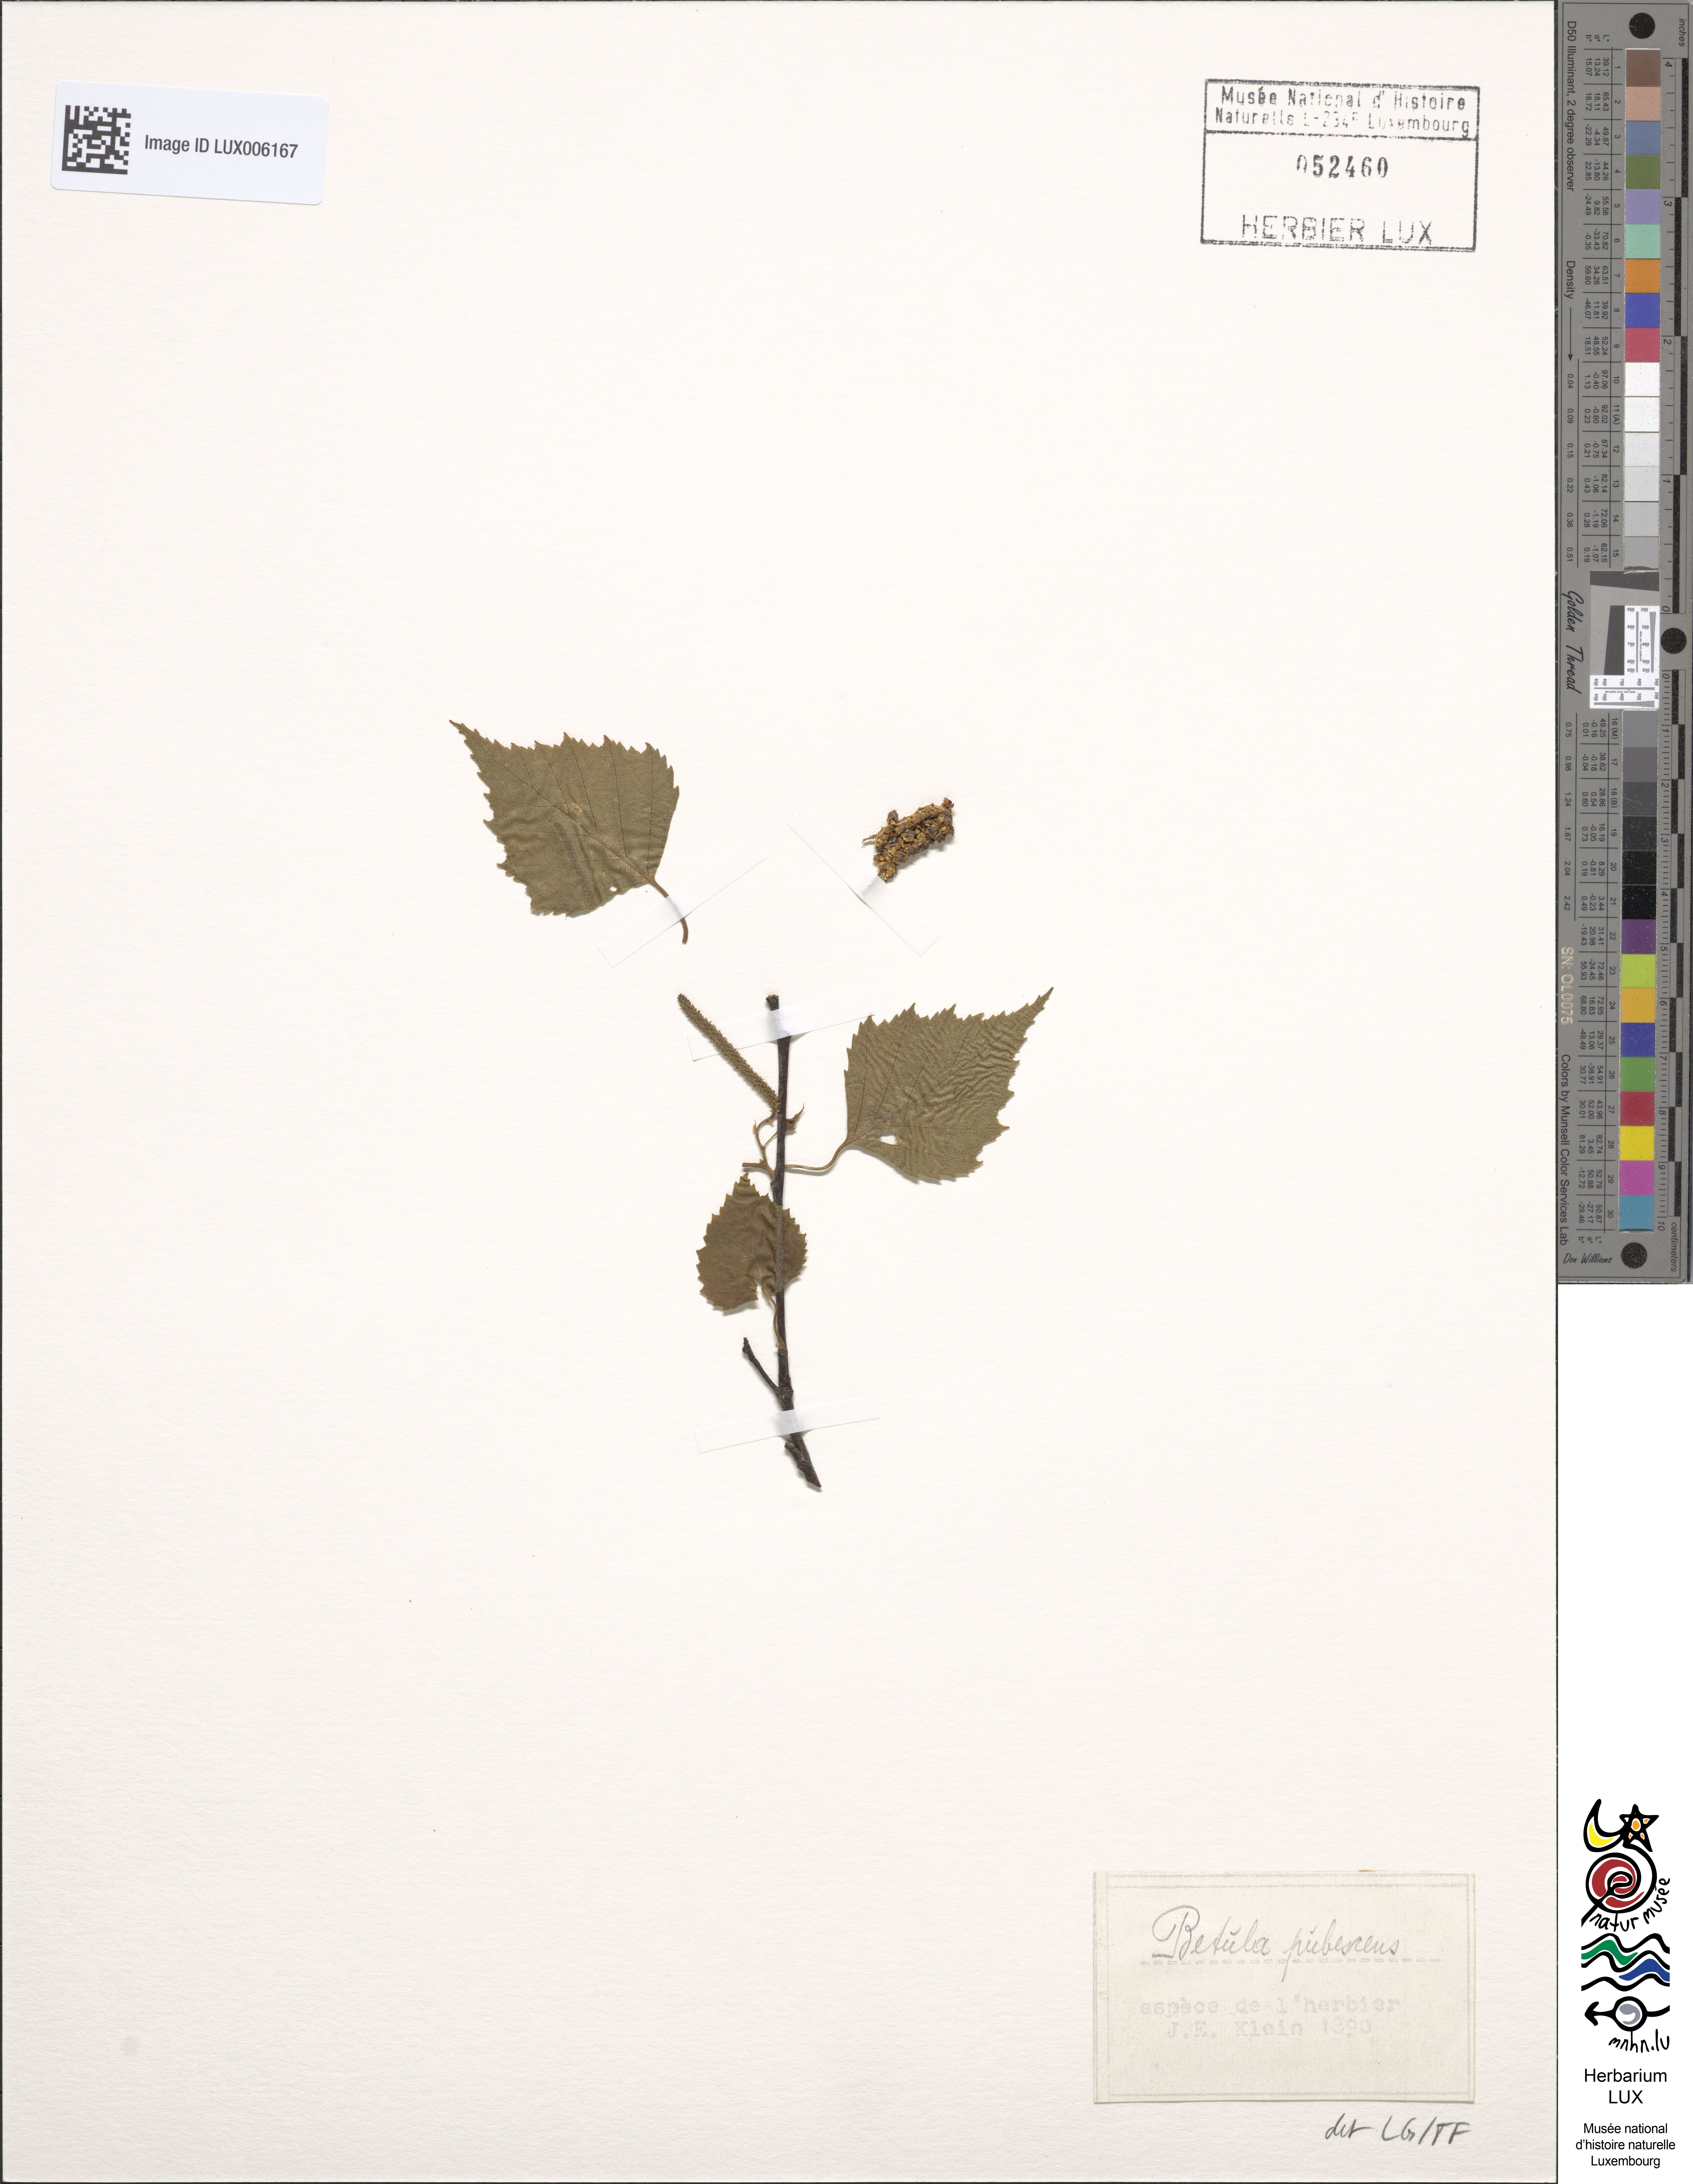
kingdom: Plantae
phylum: Tracheophyta
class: Magnoliopsida
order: Fagales
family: Betulaceae
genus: Betula
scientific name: Betula pubescens
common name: Downy birch
